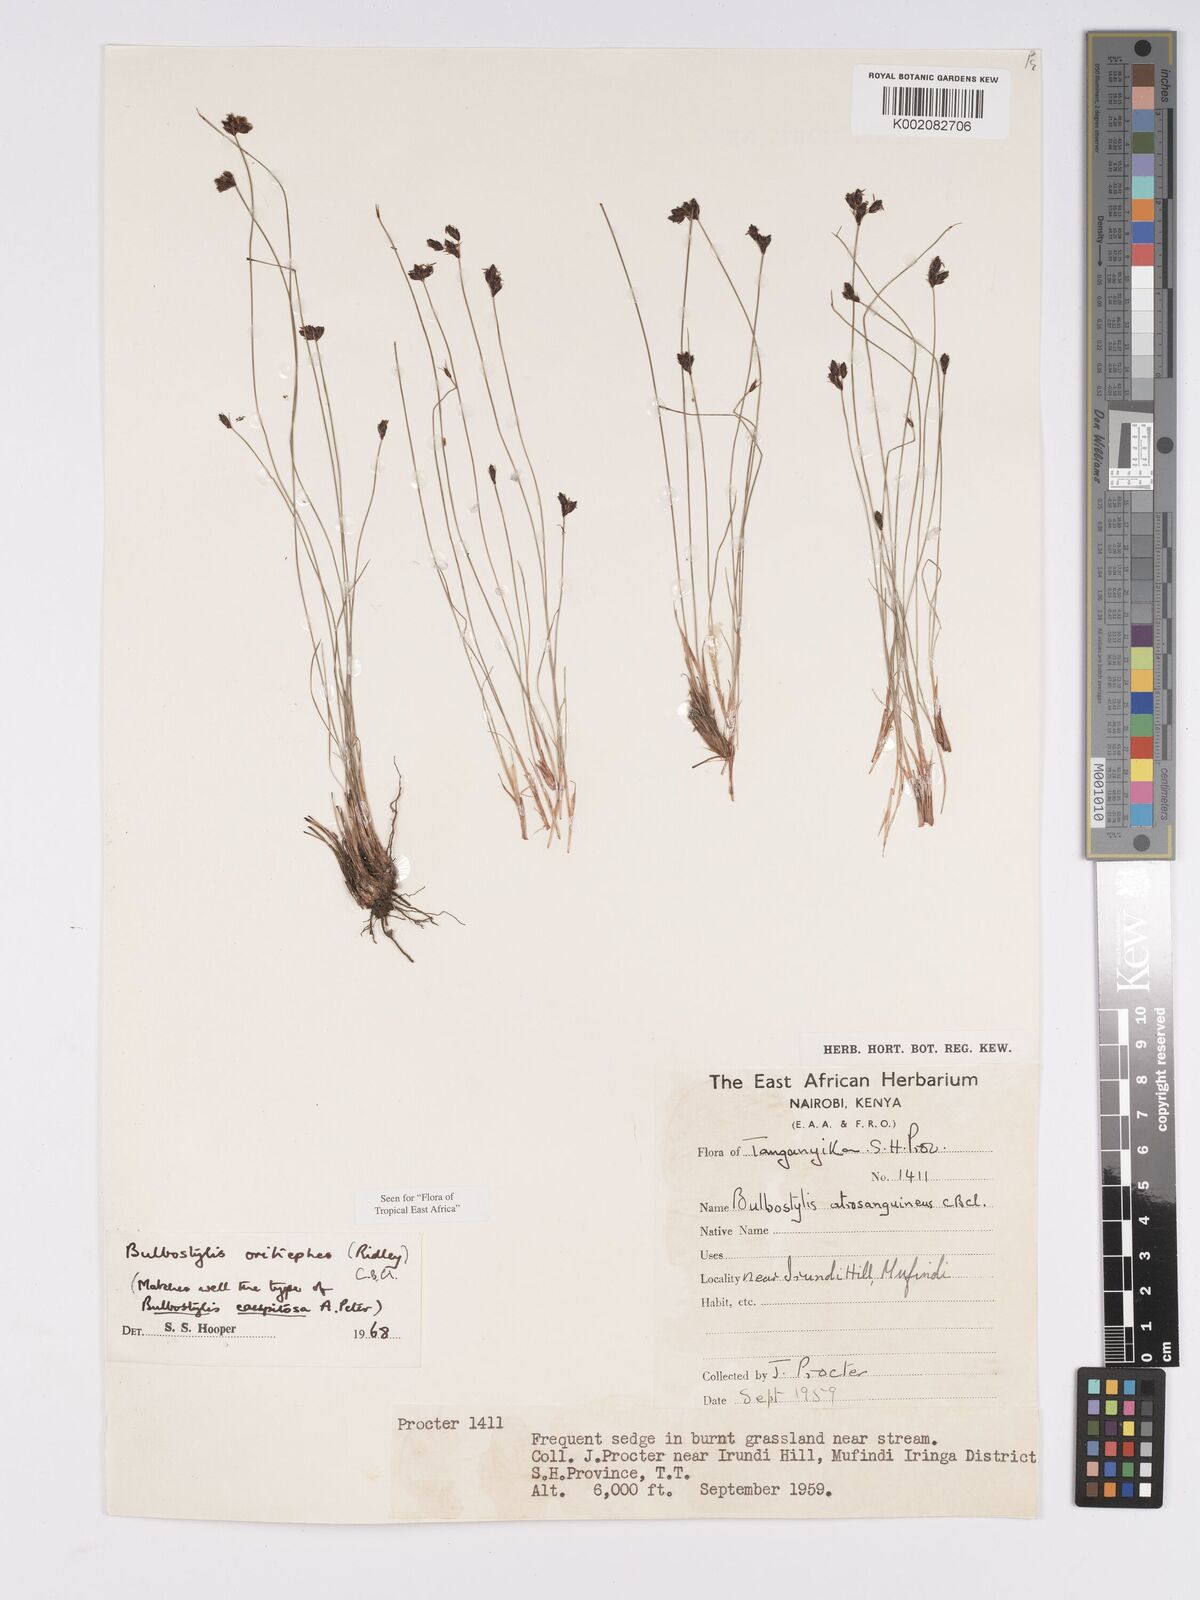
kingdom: Plantae
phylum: Tracheophyta
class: Liliopsida
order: Poales
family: Cyperaceae
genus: Bulbostylis
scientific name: Bulbostylis oritrephes
